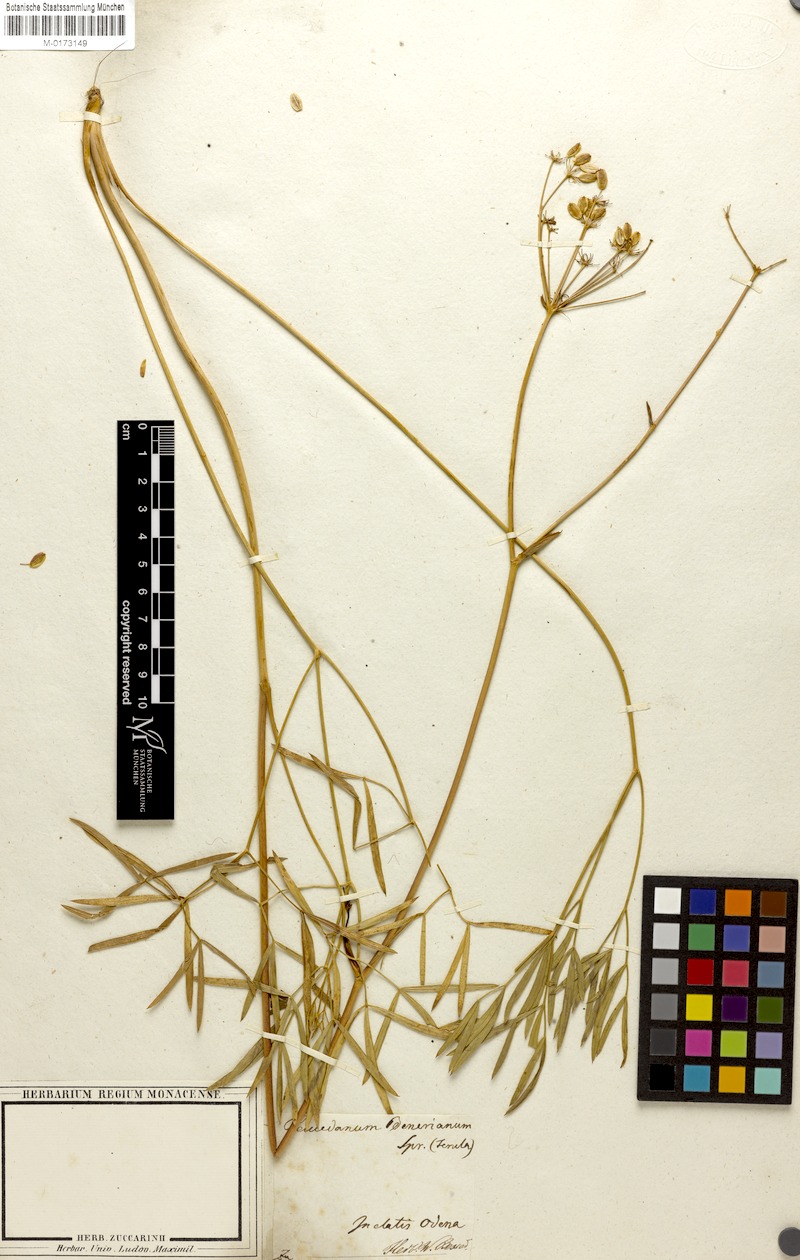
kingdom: Plantae
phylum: Tracheophyta
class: Magnoliopsida
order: Apiales
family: Apiaceae
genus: Peucedanum
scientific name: Peucedanum ruthenicum
